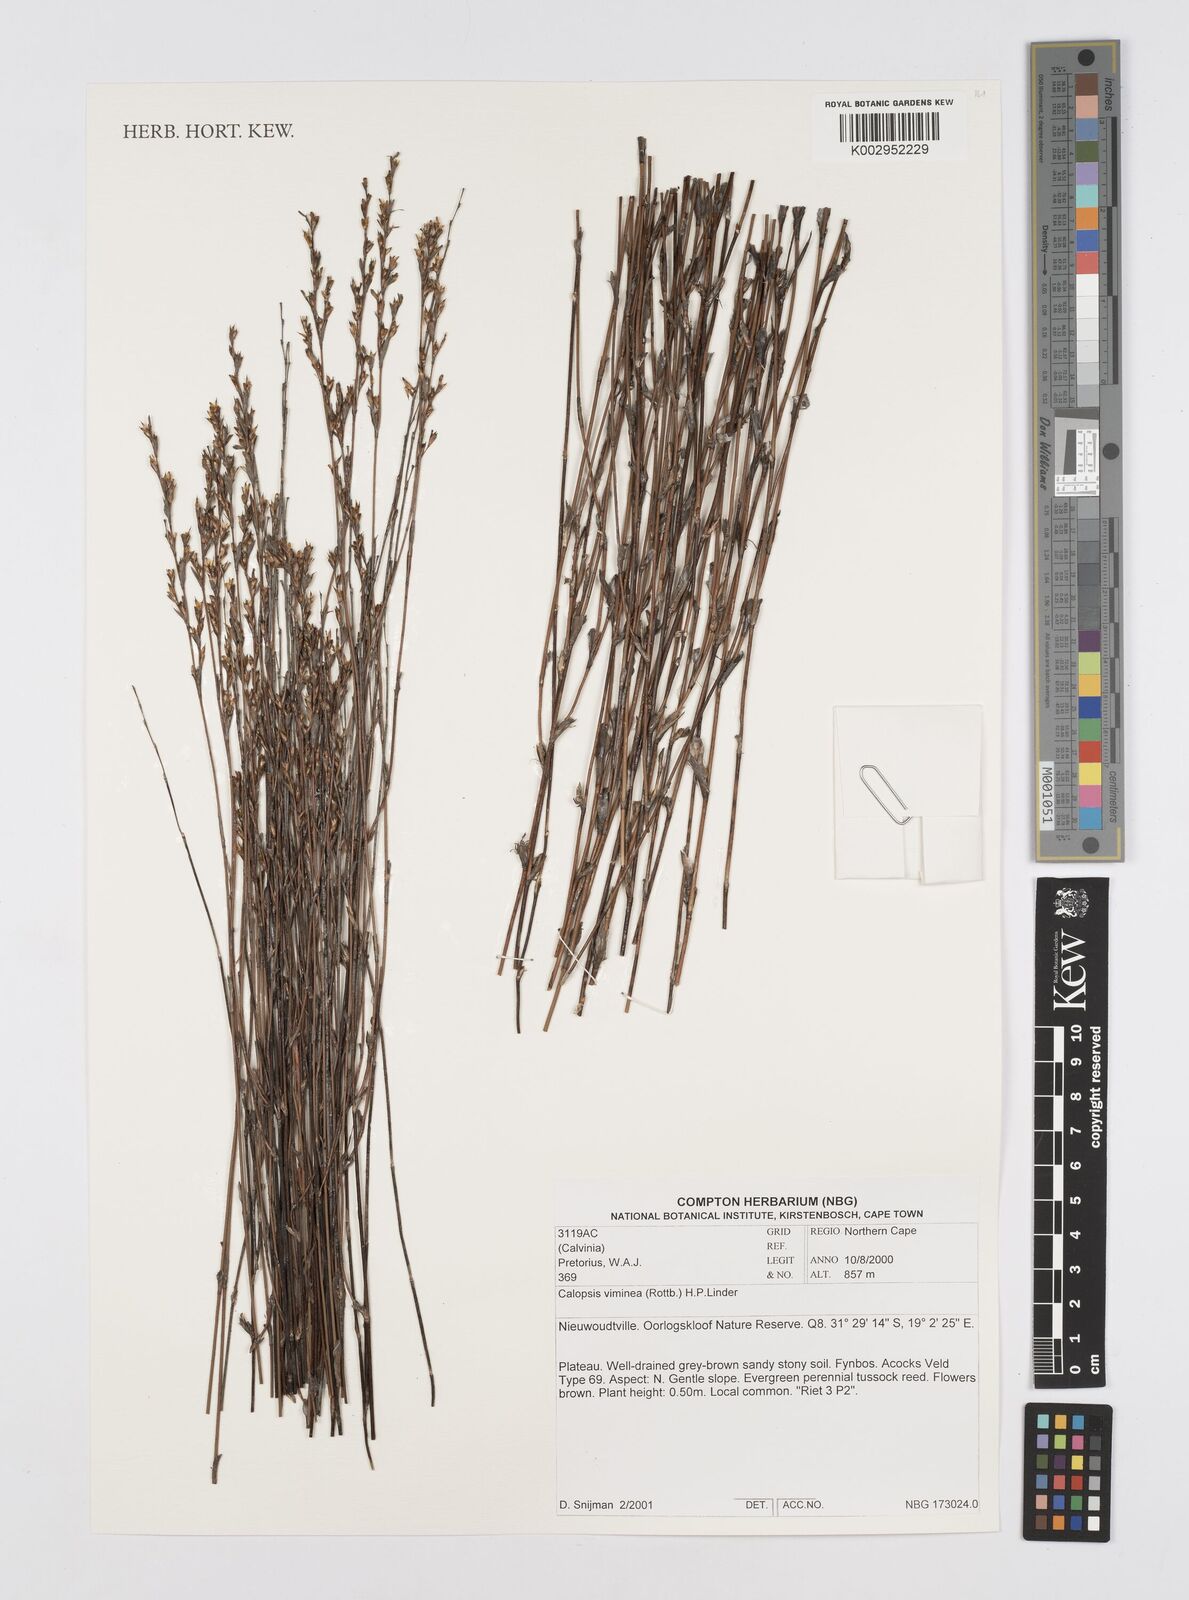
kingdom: Plantae
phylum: Tracheophyta
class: Liliopsida
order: Poales
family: Restionaceae
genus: Restio
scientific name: Restio vimineus
